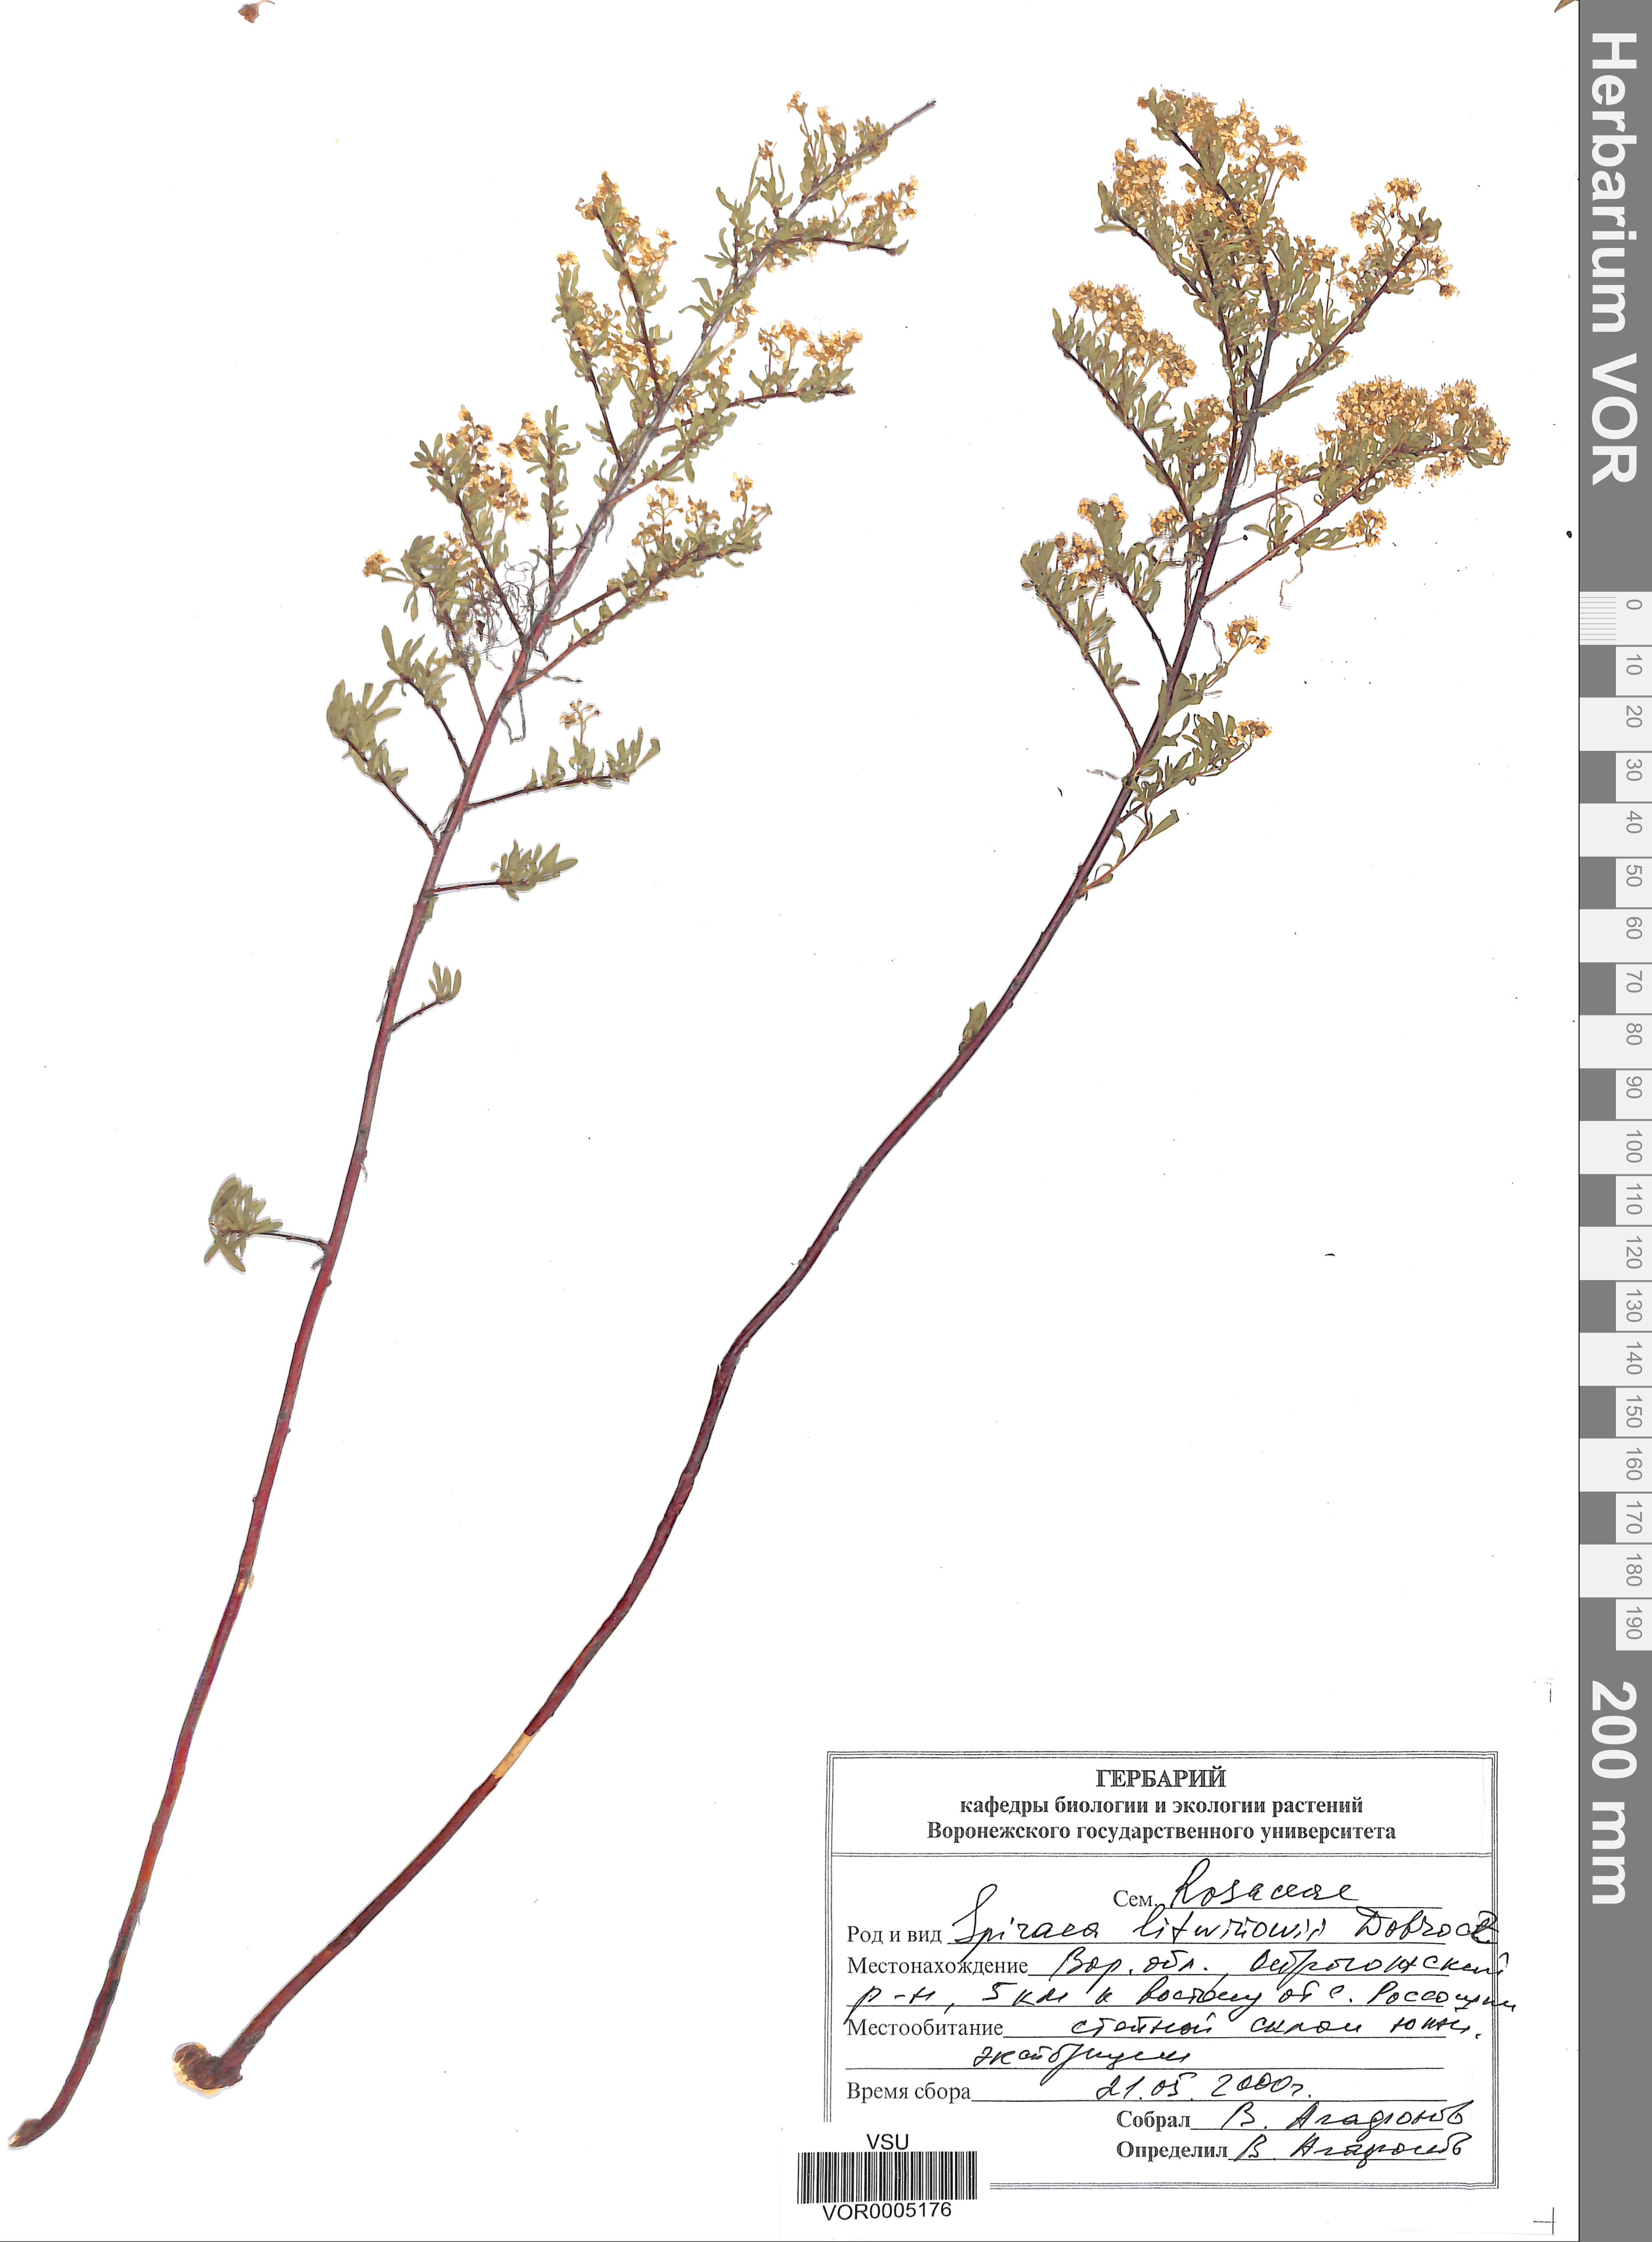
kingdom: Plantae
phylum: Tracheophyta
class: Magnoliopsida
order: Rosales
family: Rosaceae
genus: Spiraea
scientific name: Spiraea crenata
